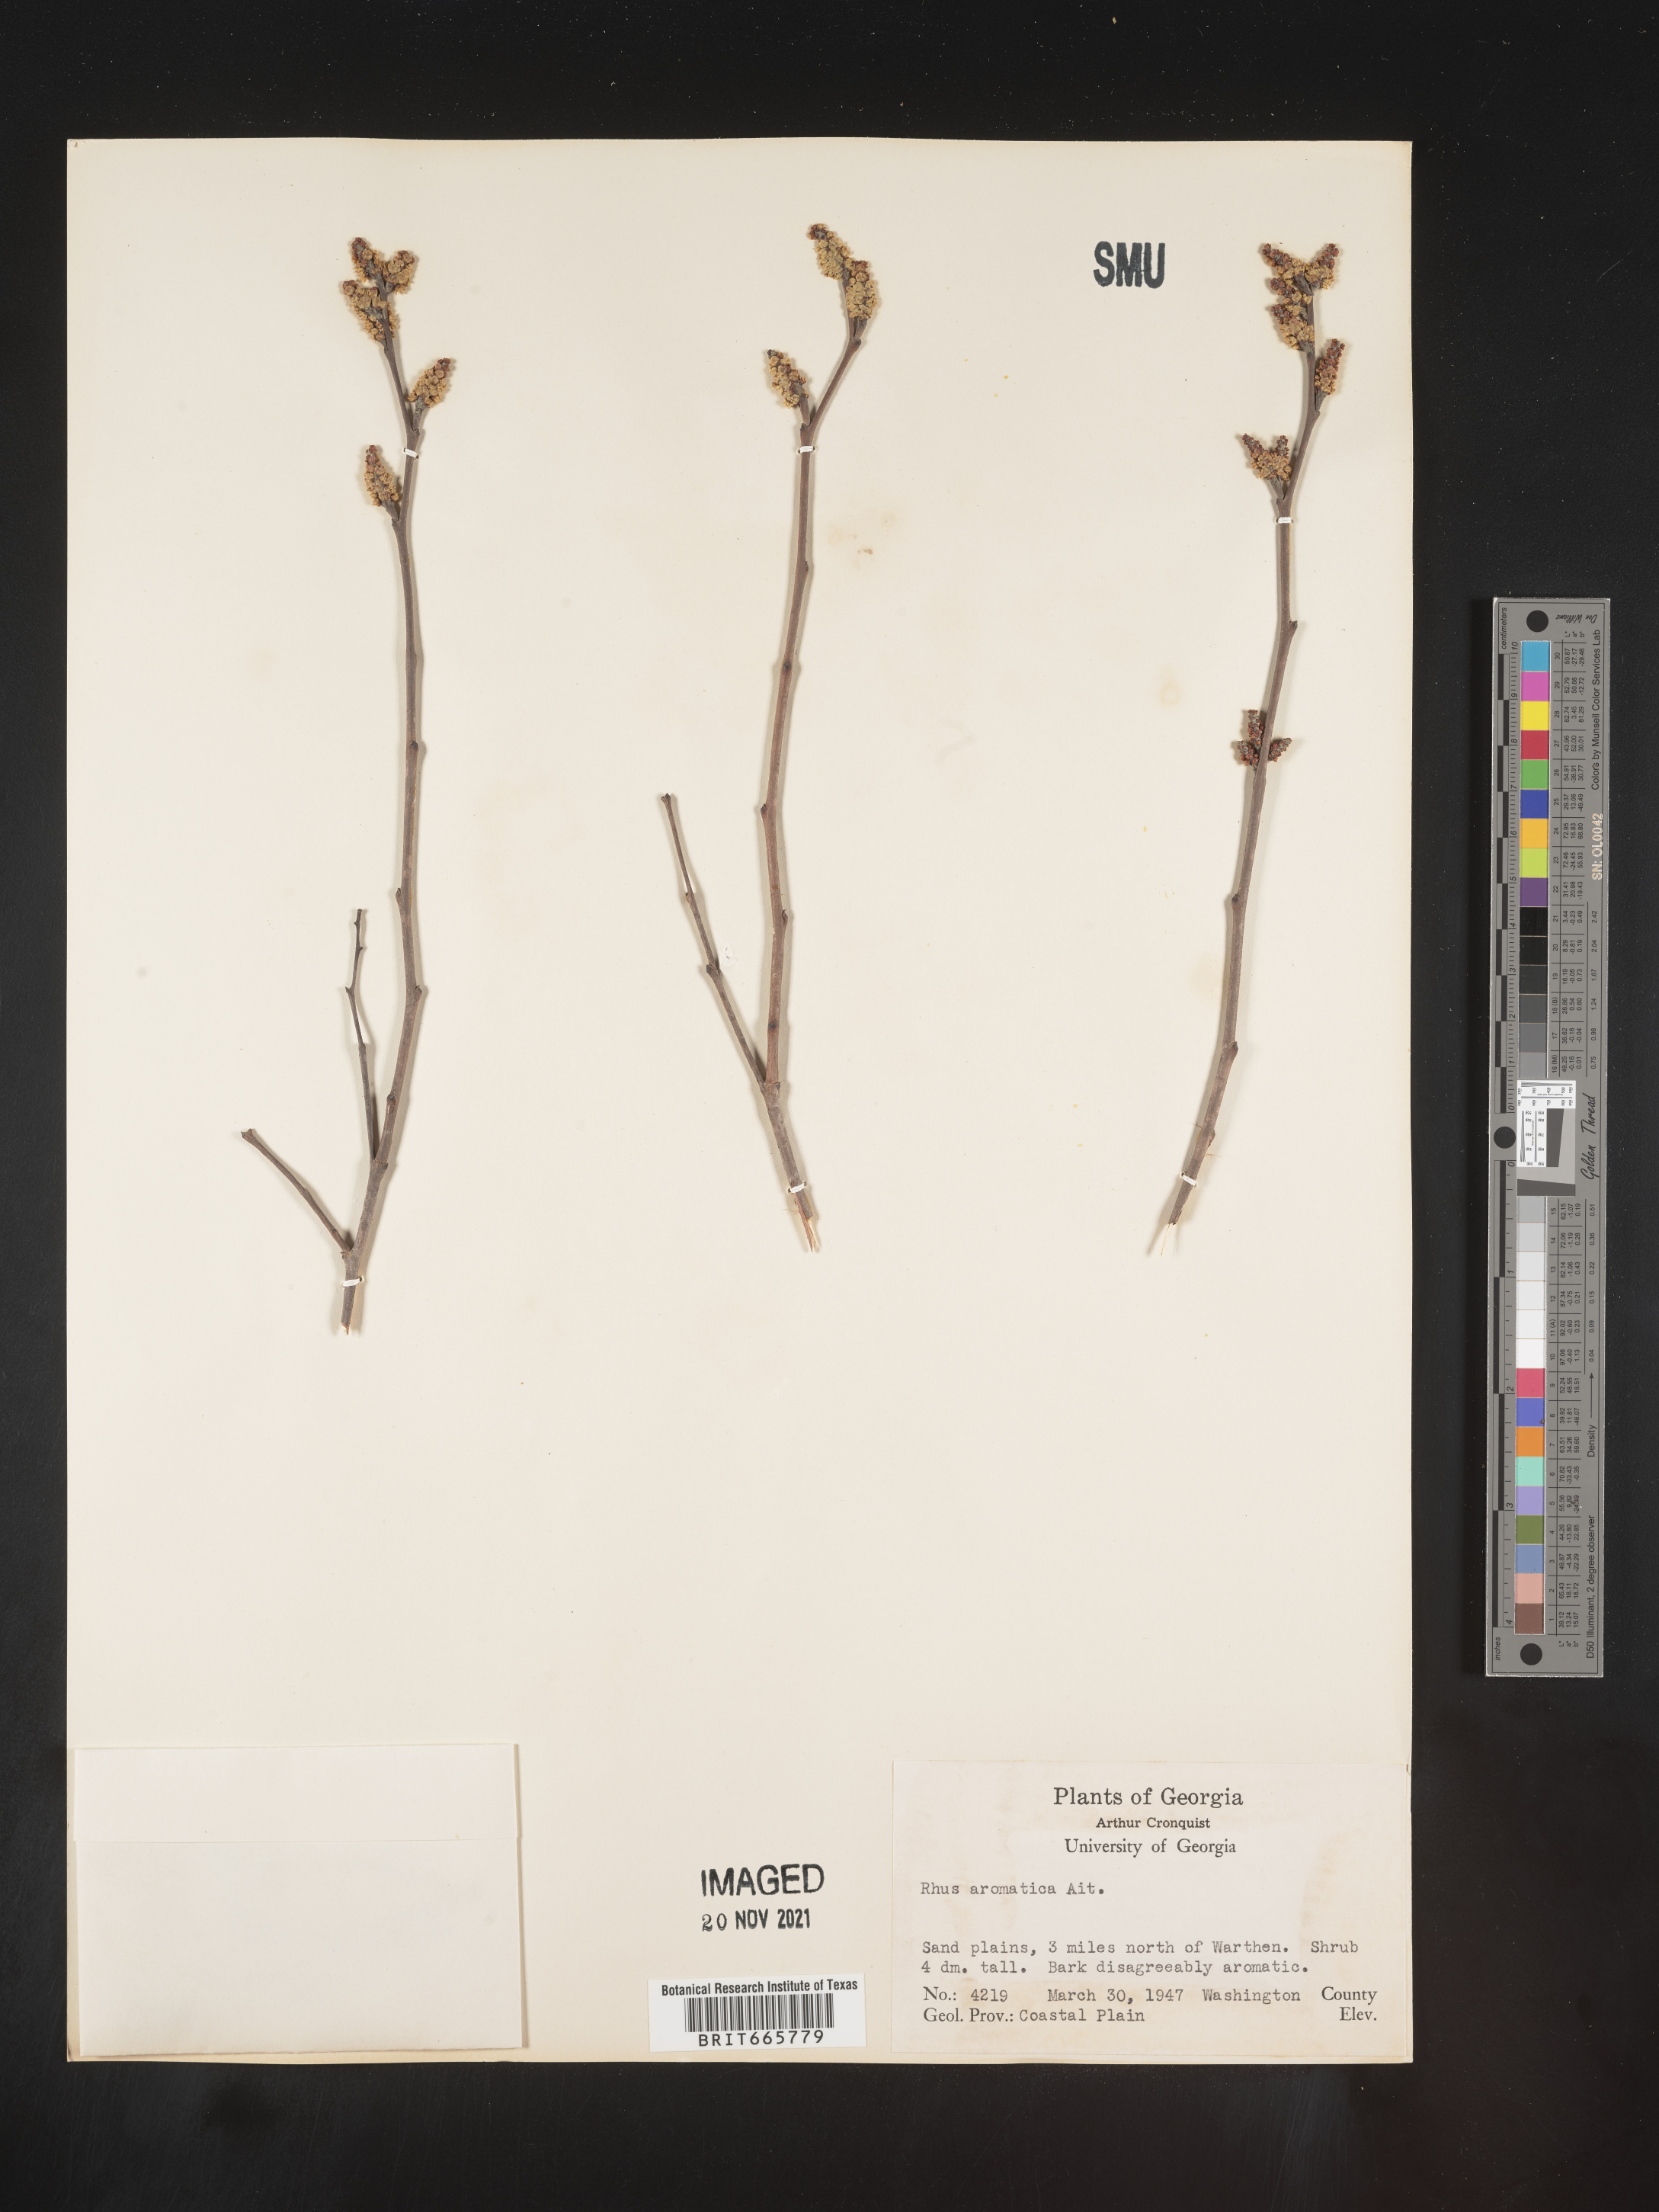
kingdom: Plantae
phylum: Tracheophyta
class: Magnoliopsida
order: Sapindales
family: Anacardiaceae
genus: Rhus
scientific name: Rhus aromatica
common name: Aromatic sumac
